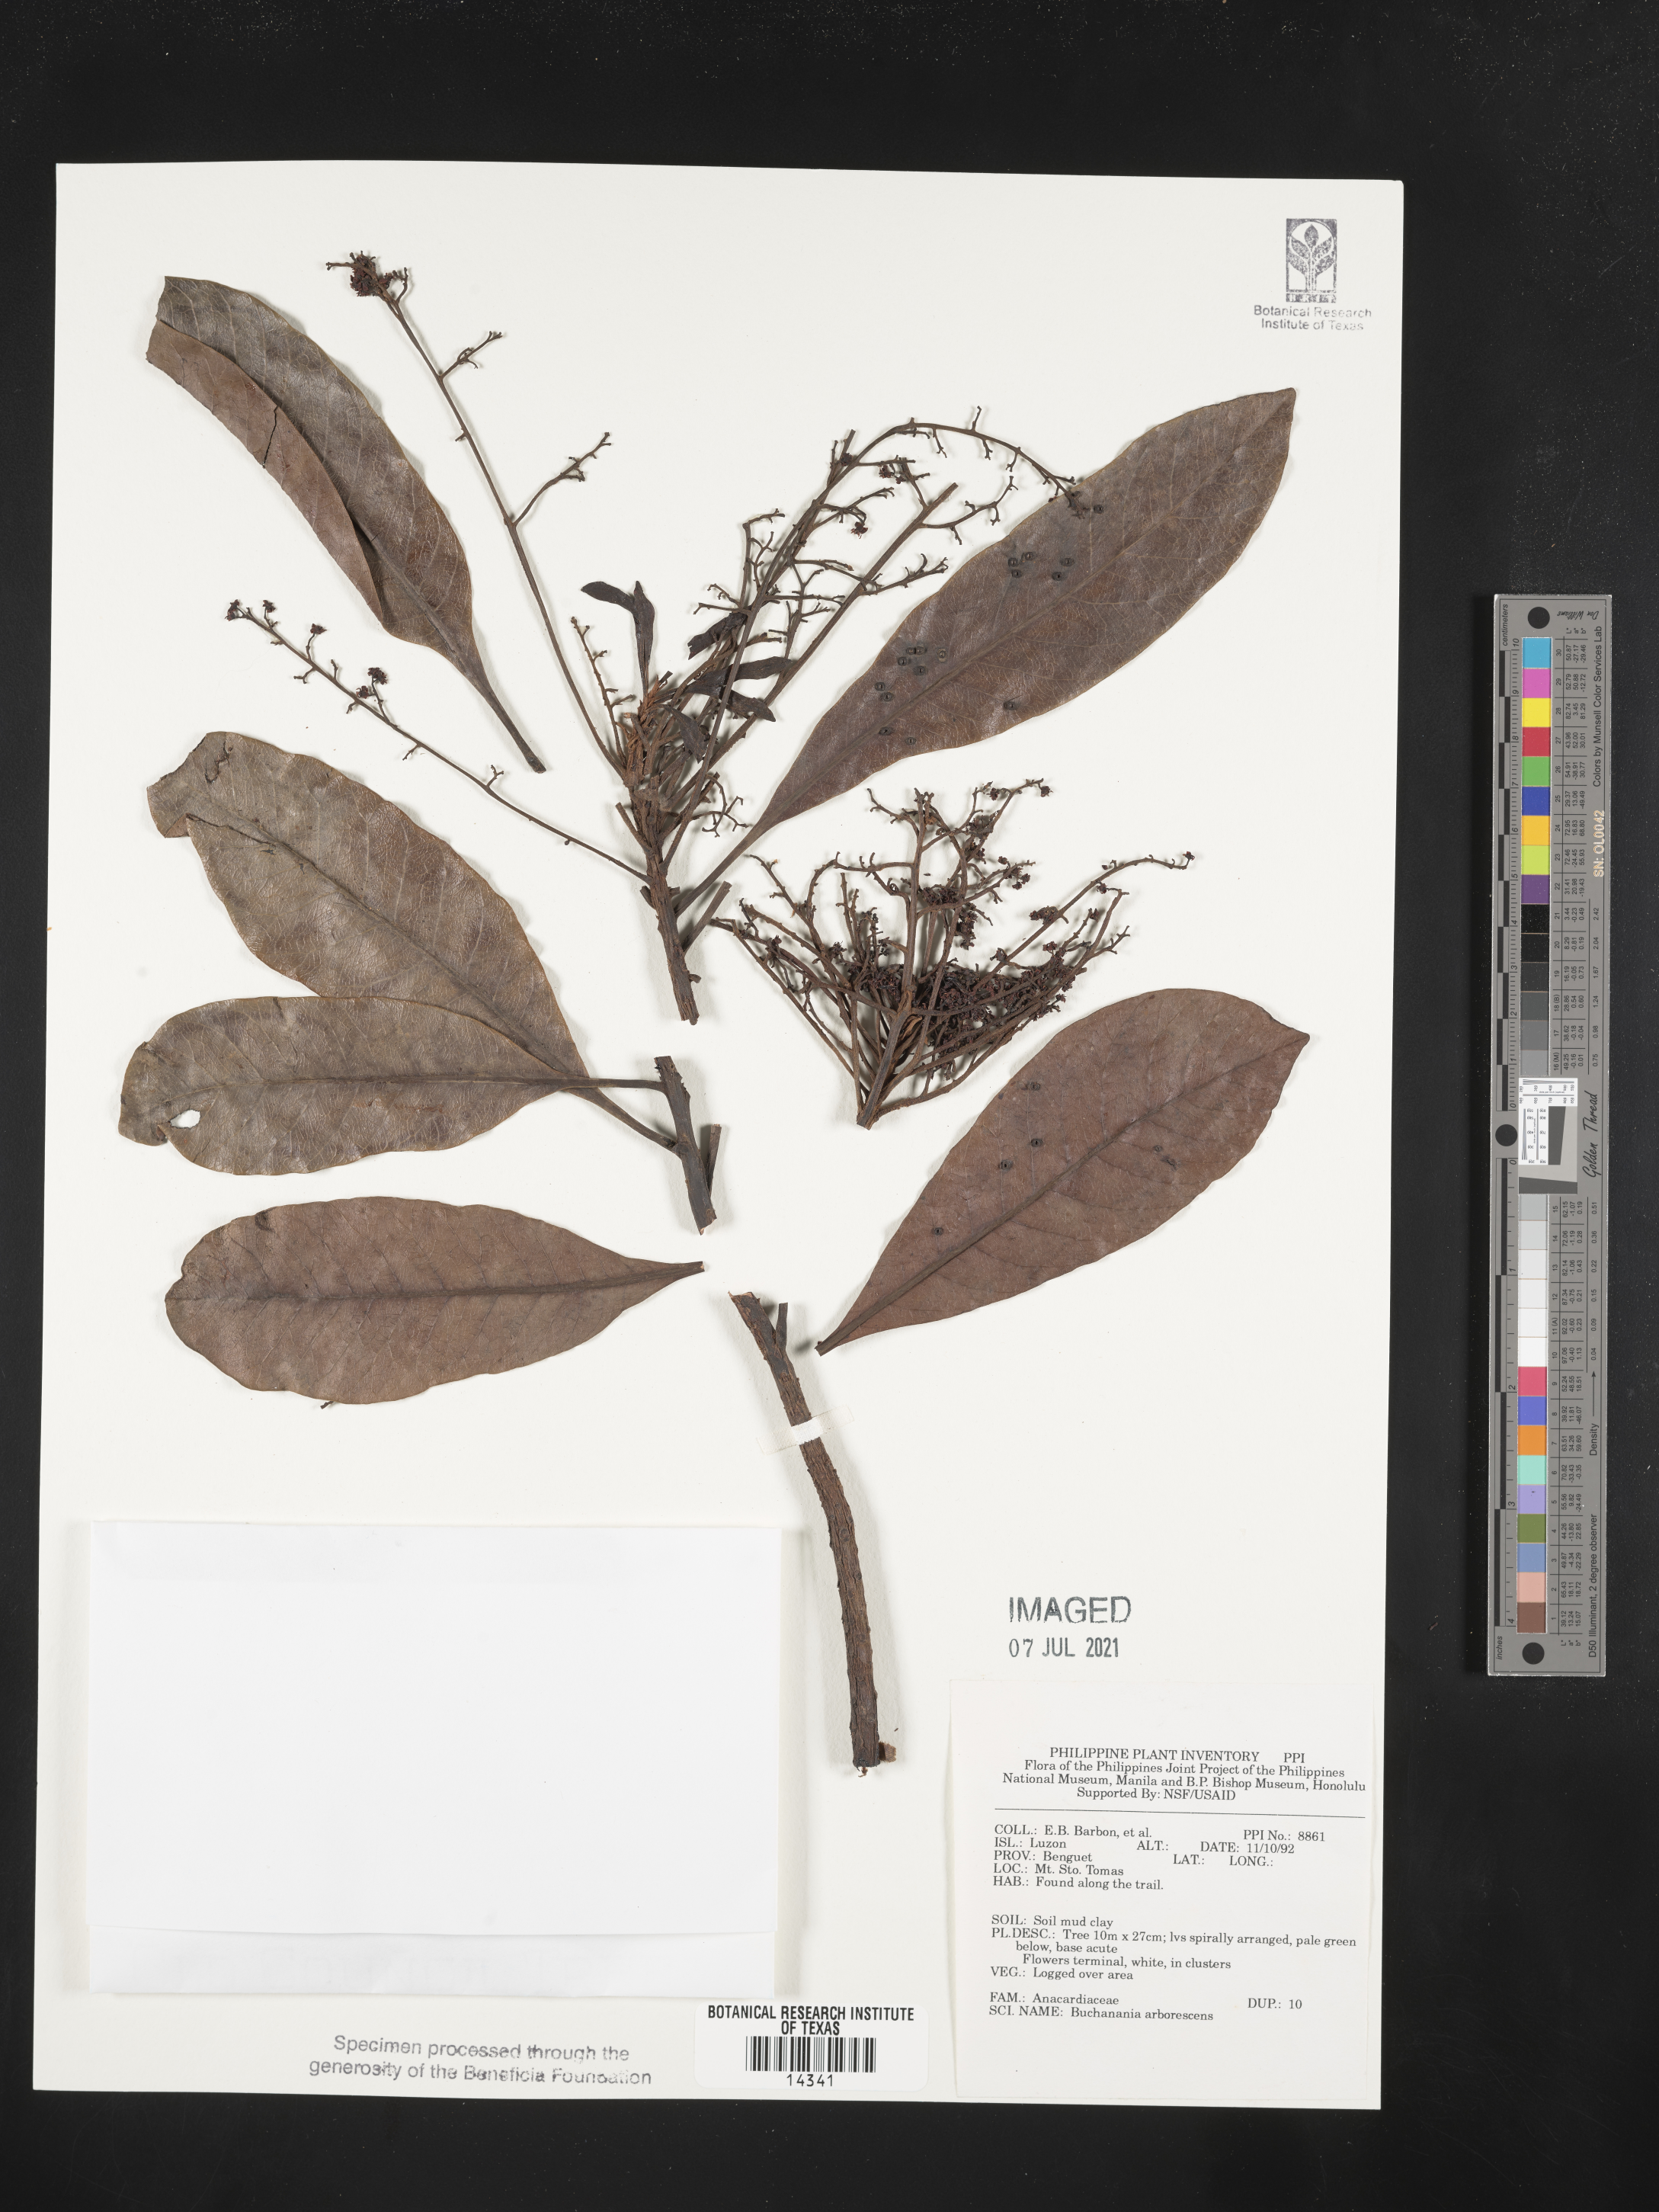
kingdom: Plantae
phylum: Tracheophyta
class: Magnoliopsida
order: Sapindales
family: Anacardiaceae
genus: Buchanania
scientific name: Buchanania arborescens
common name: Sparrow’s mango
